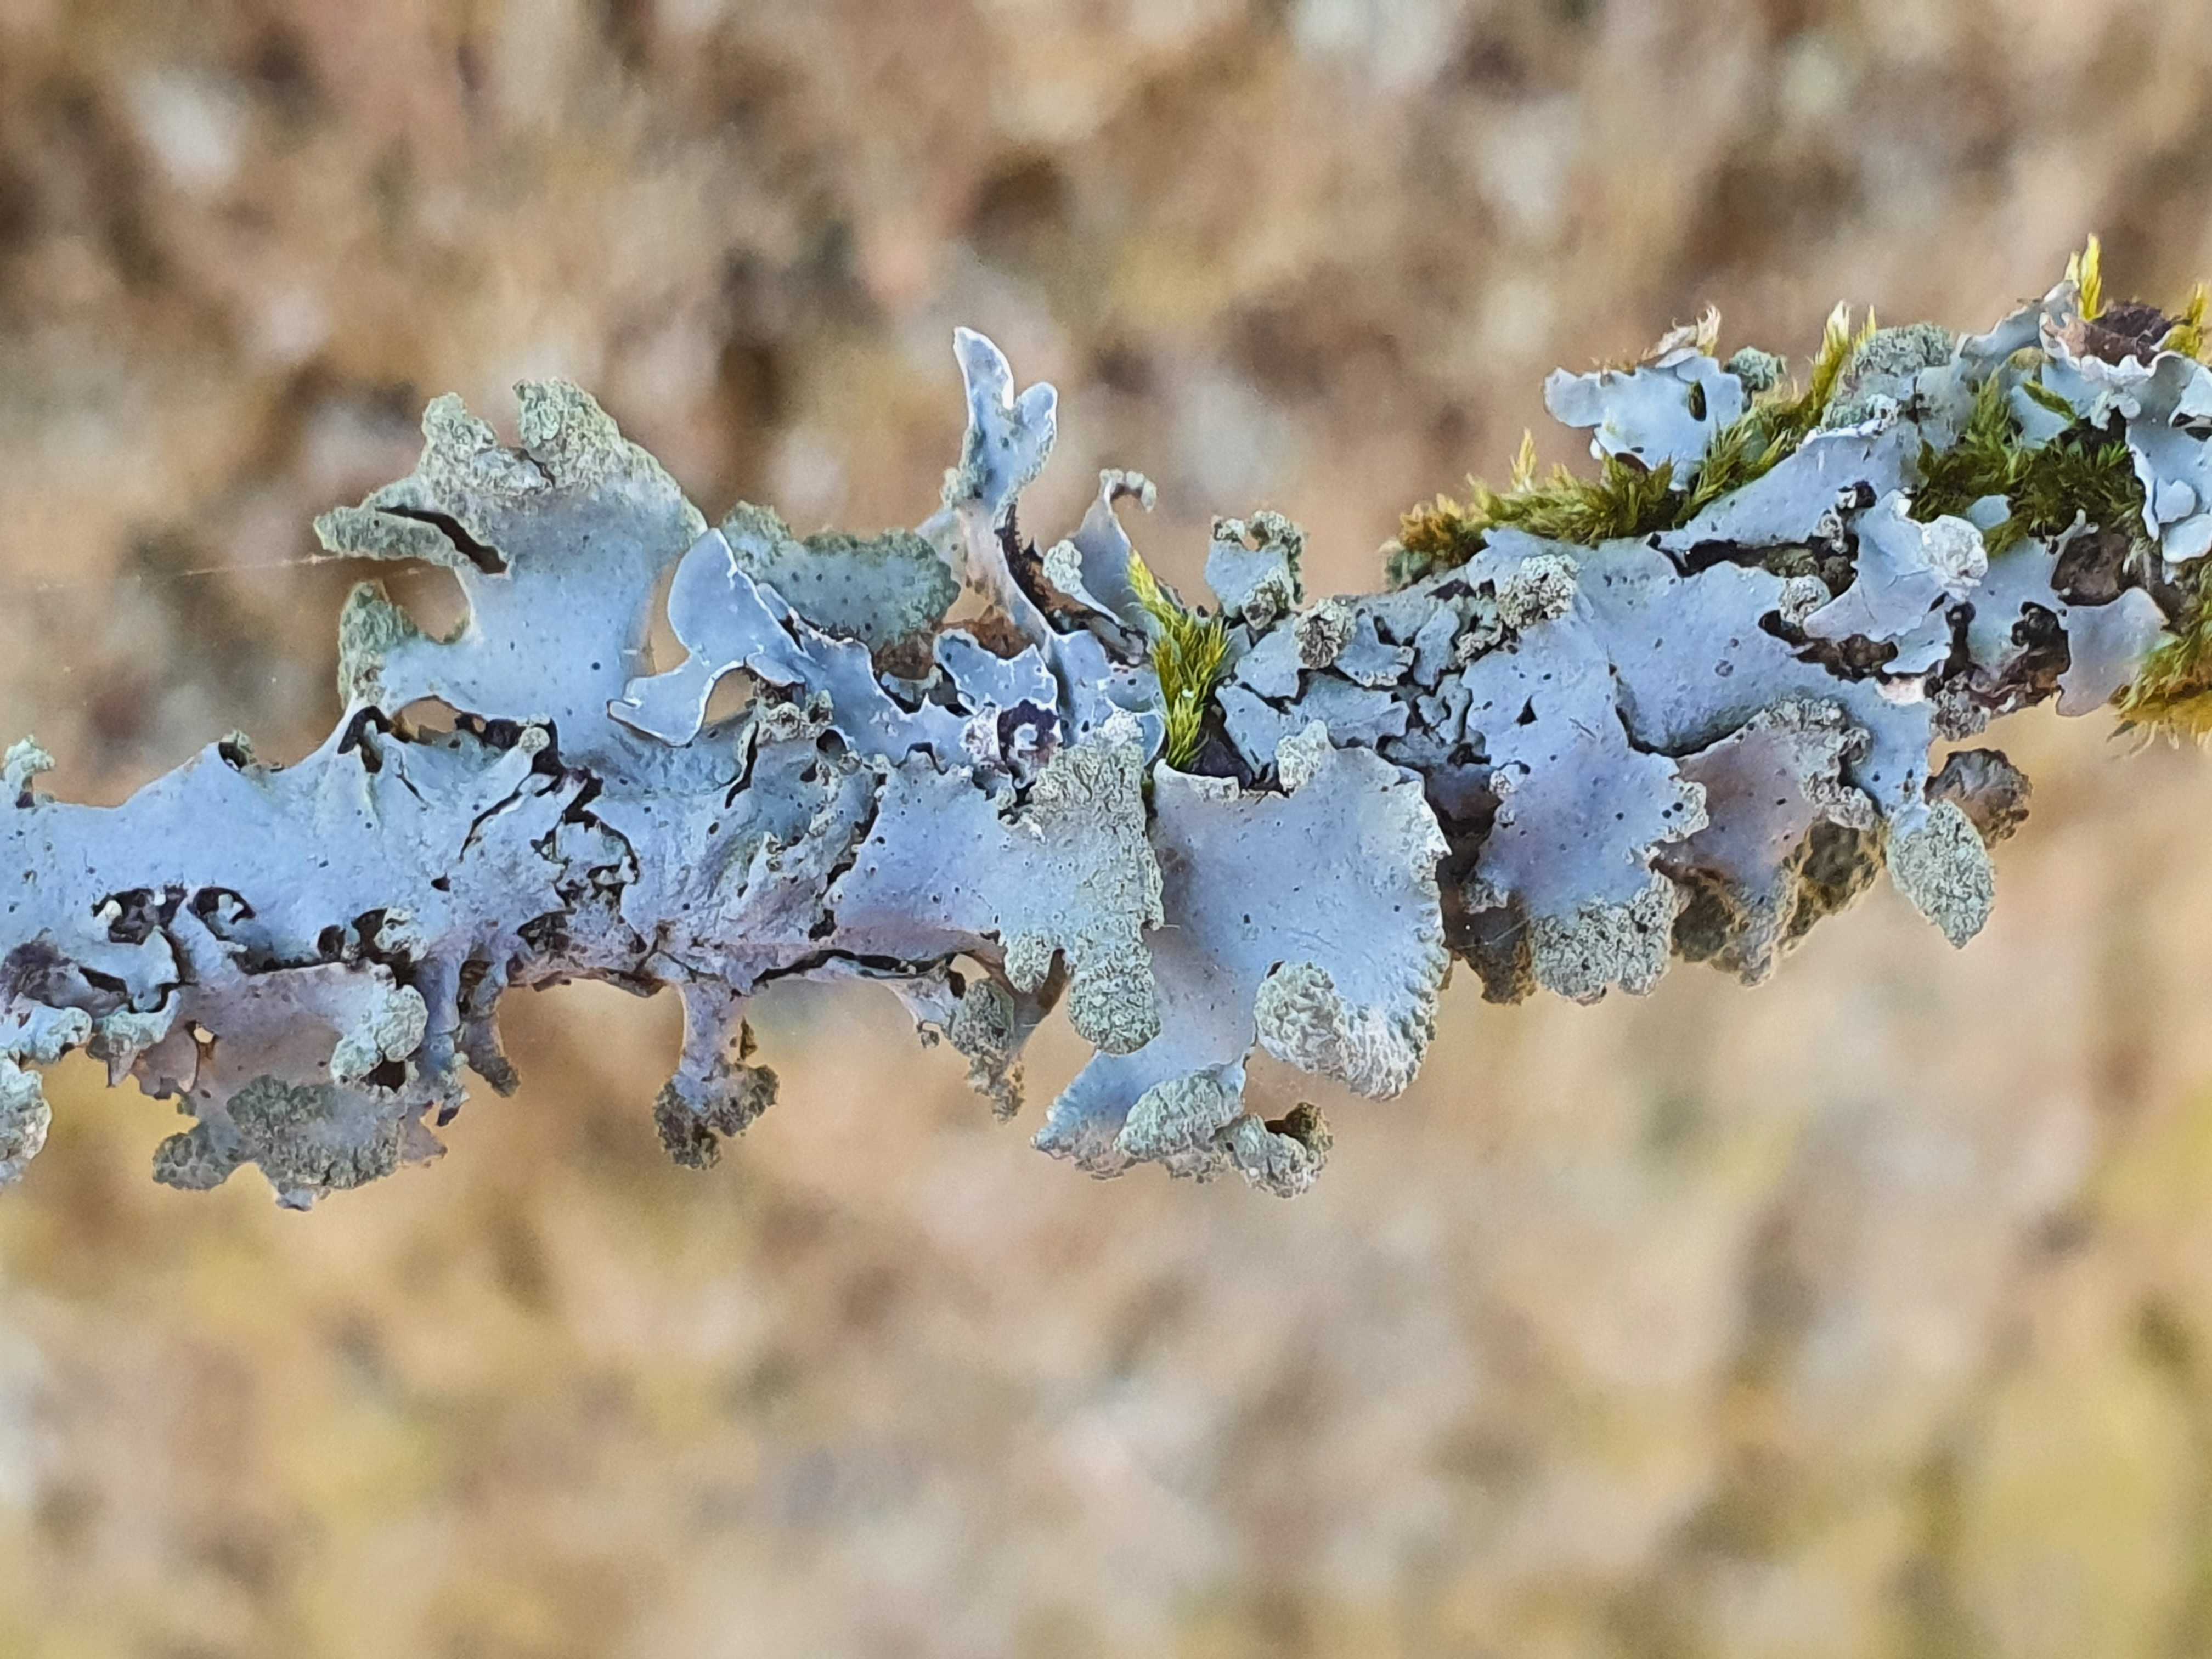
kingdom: Fungi
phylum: Ascomycota
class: Lecanoromycetes
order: Lecanorales
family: Parmeliaceae
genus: Hypotrachyna
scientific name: Hypotrachyna revoluta
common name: bleggrå skållav
